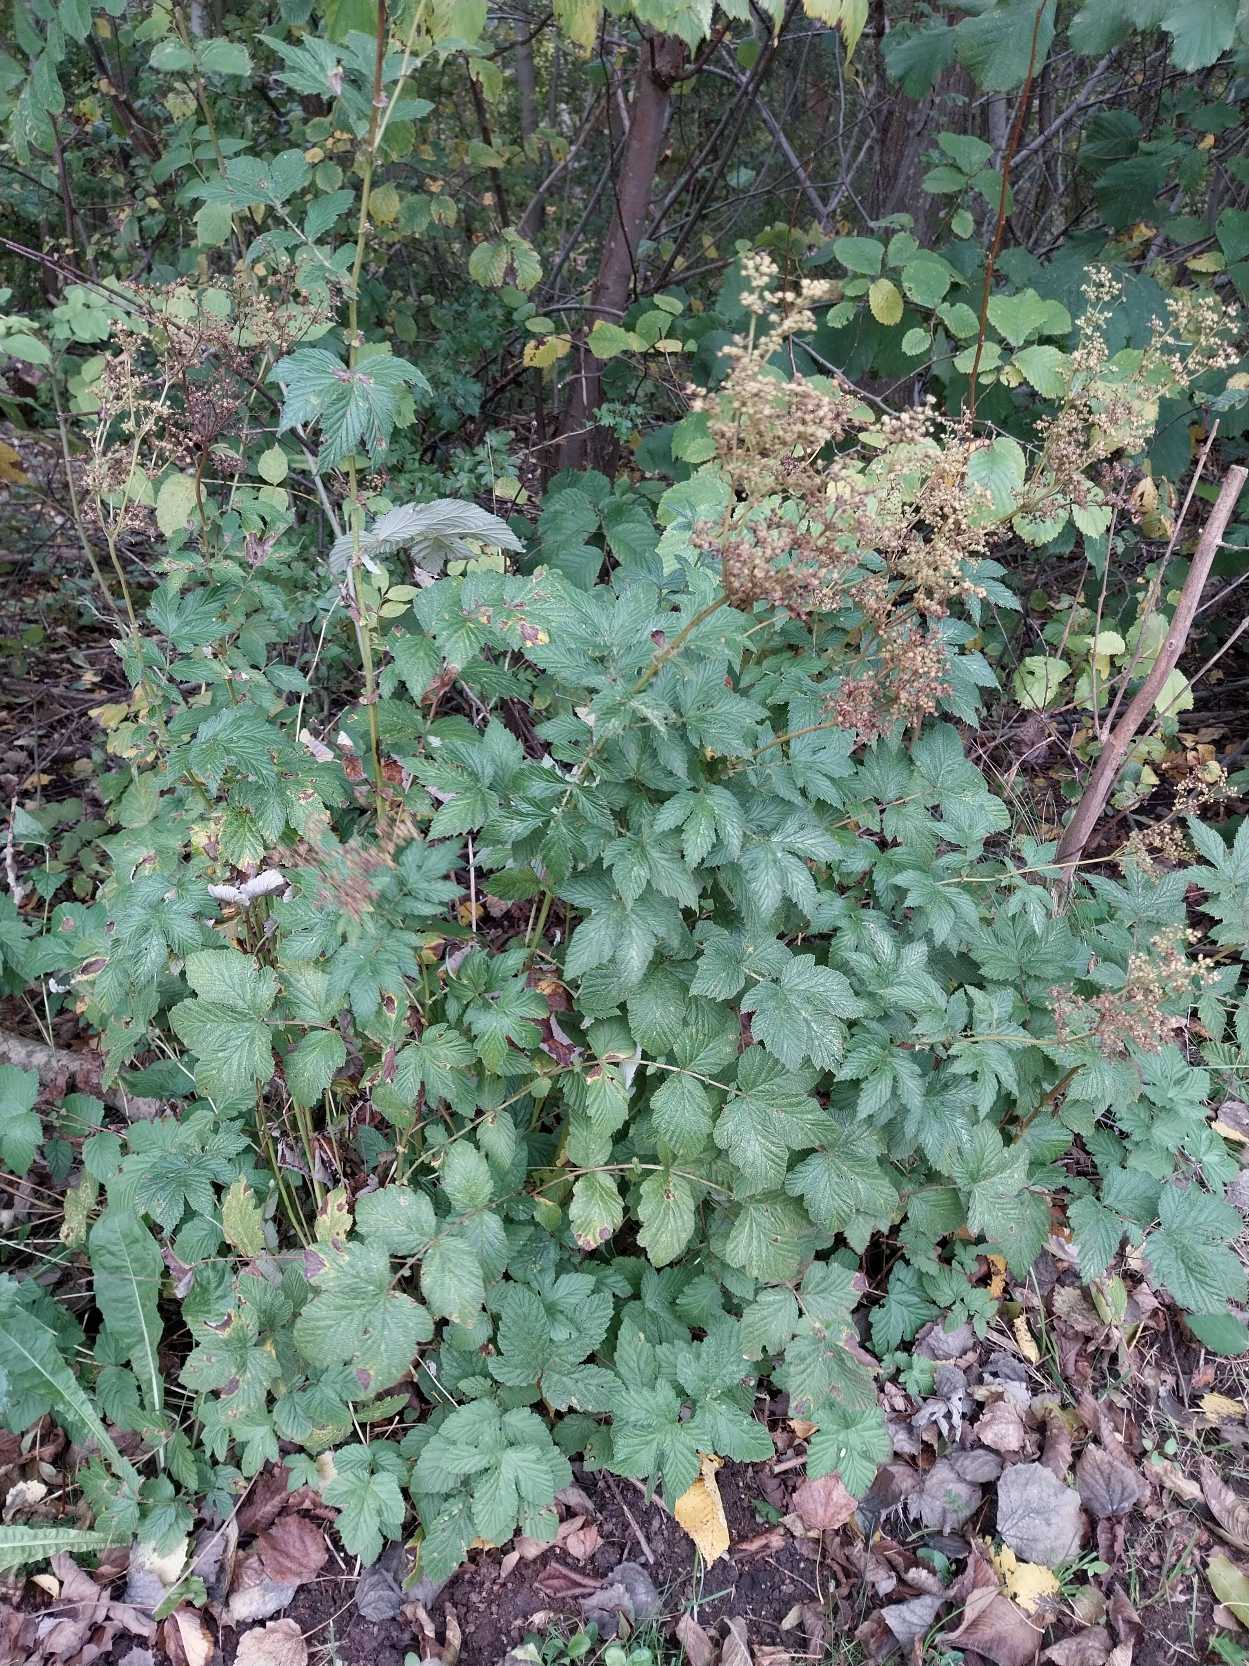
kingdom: Plantae
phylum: Tracheophyta
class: Magnoliopsida
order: Rosales
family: Rosaceae
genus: Filipendula
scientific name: Filipendula ulmaria
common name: Almindelig mjødurt
